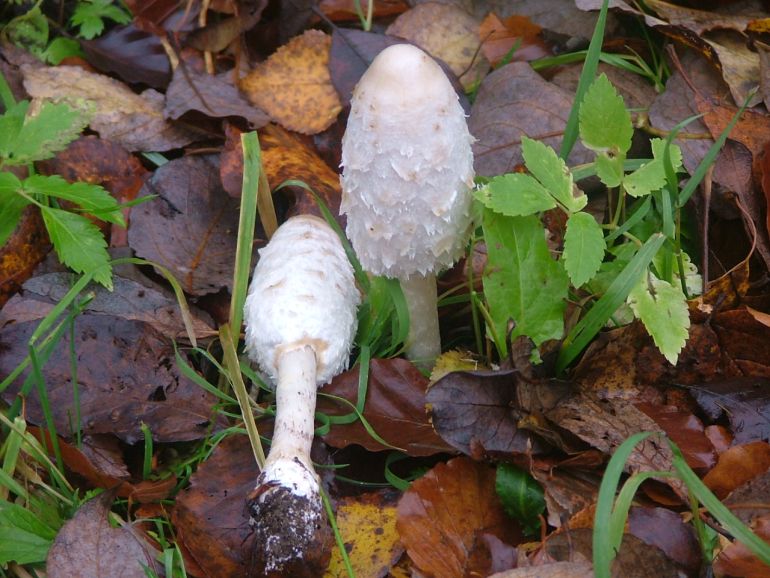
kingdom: Fungi
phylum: Basidiomycota
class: Agaricomycetes
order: Agaricales
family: Agaricaceae
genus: Coprinus
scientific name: Coprinus comatus
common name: stor parykhat
